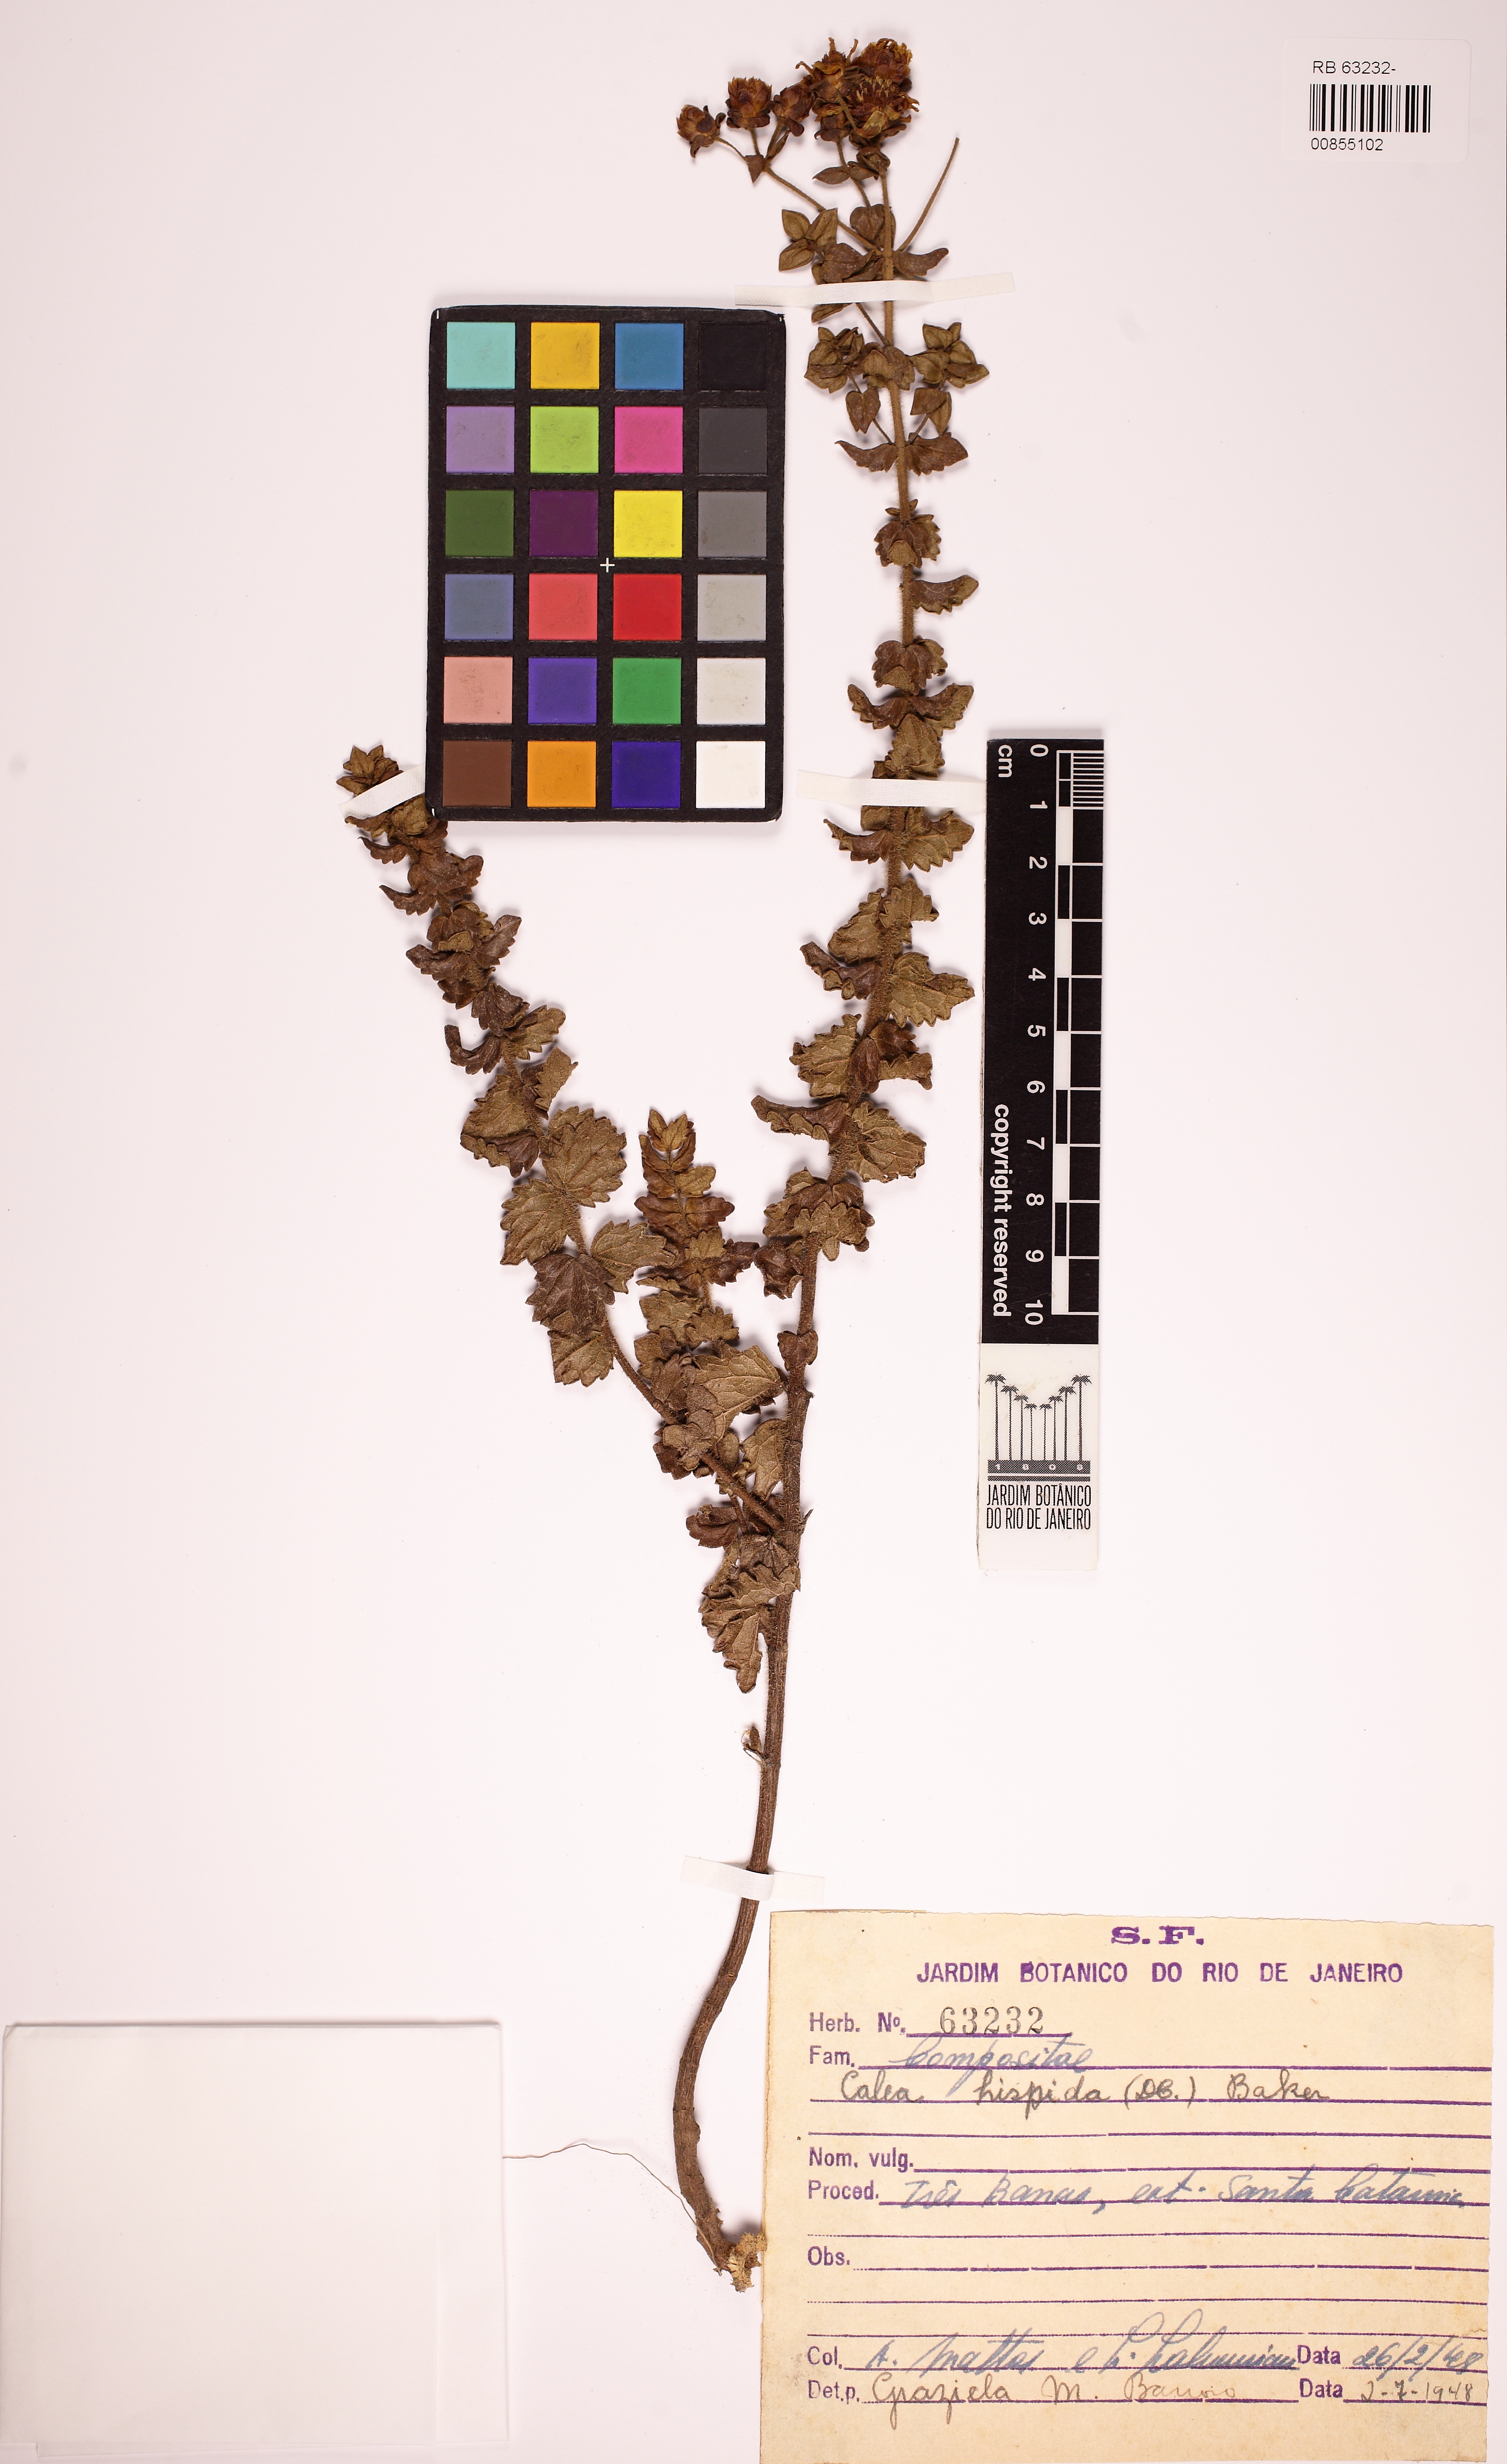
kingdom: Plantae
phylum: Tracheophyta
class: Magnoliopsida
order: Asterales
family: Asteraceae
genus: Calea
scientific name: Calea triantha
